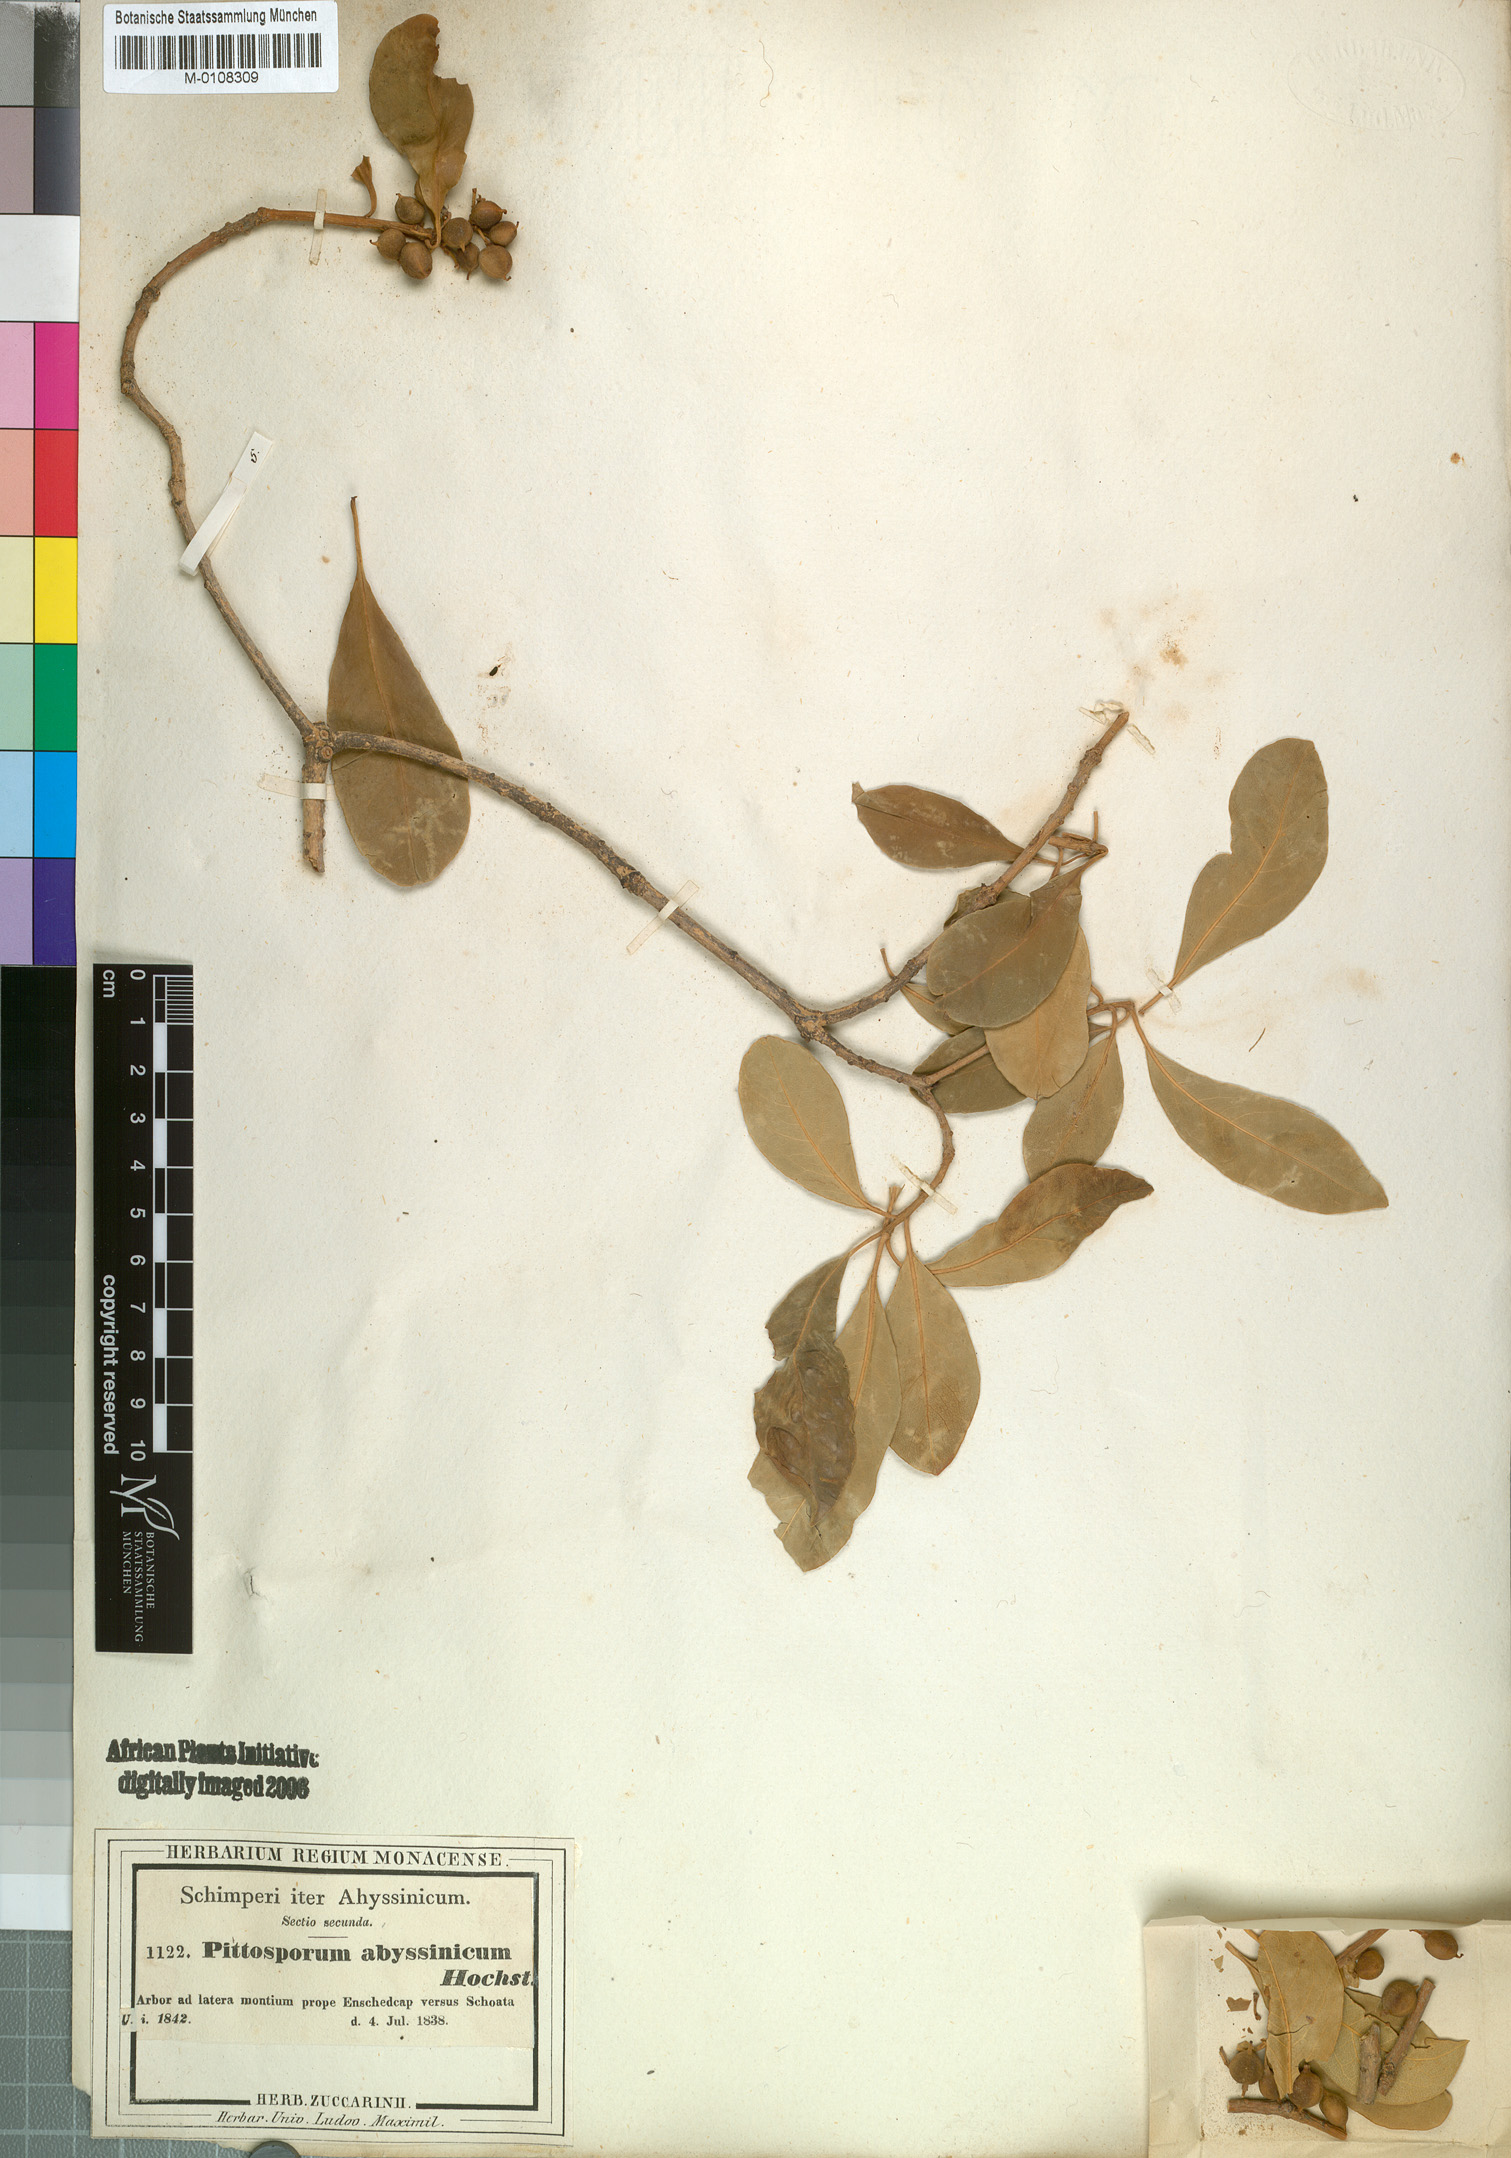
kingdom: Plantae
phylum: Tracheophyta
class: Magnoliopsida
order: Apiales
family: Pittosporaceae
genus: Pittosporum
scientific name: Pittosporum abyssinicum
